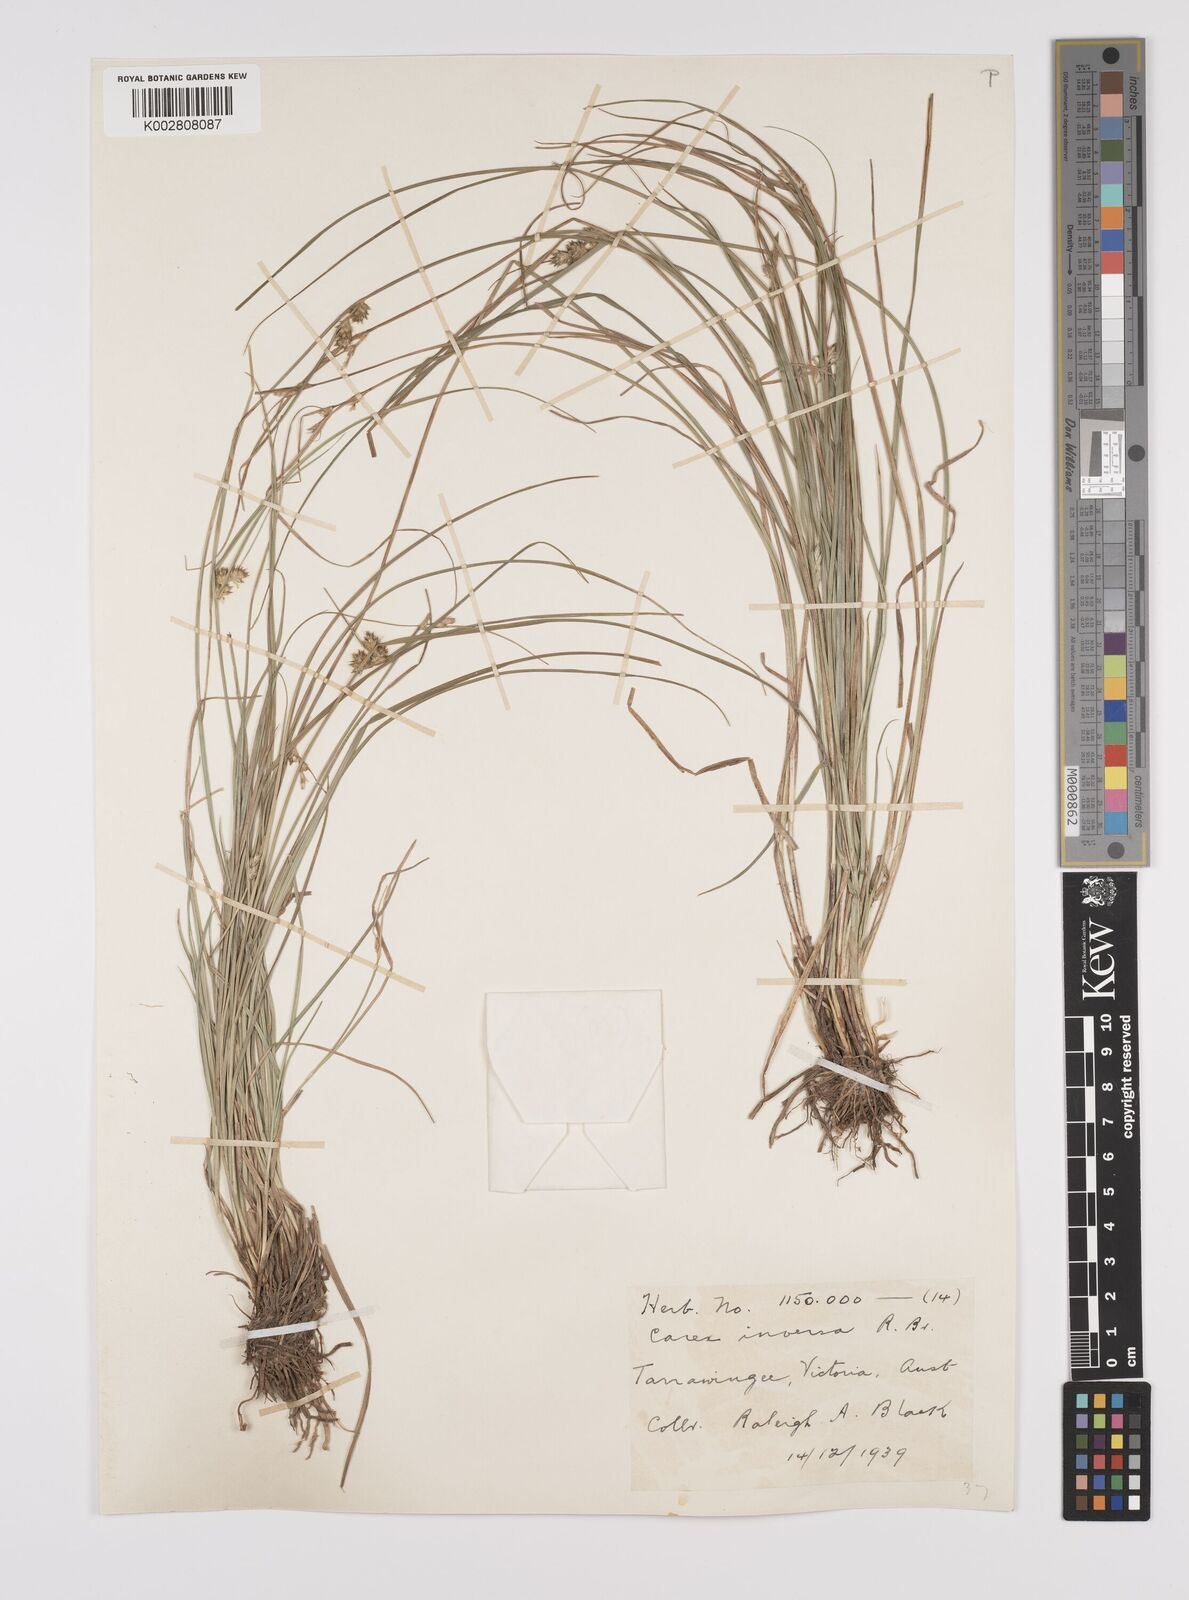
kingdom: Plantae
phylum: Tracheophyta
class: Liliopsida
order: Poales
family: Cyperaceae
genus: Carex
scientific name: Carex inversa
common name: Knob sedge
